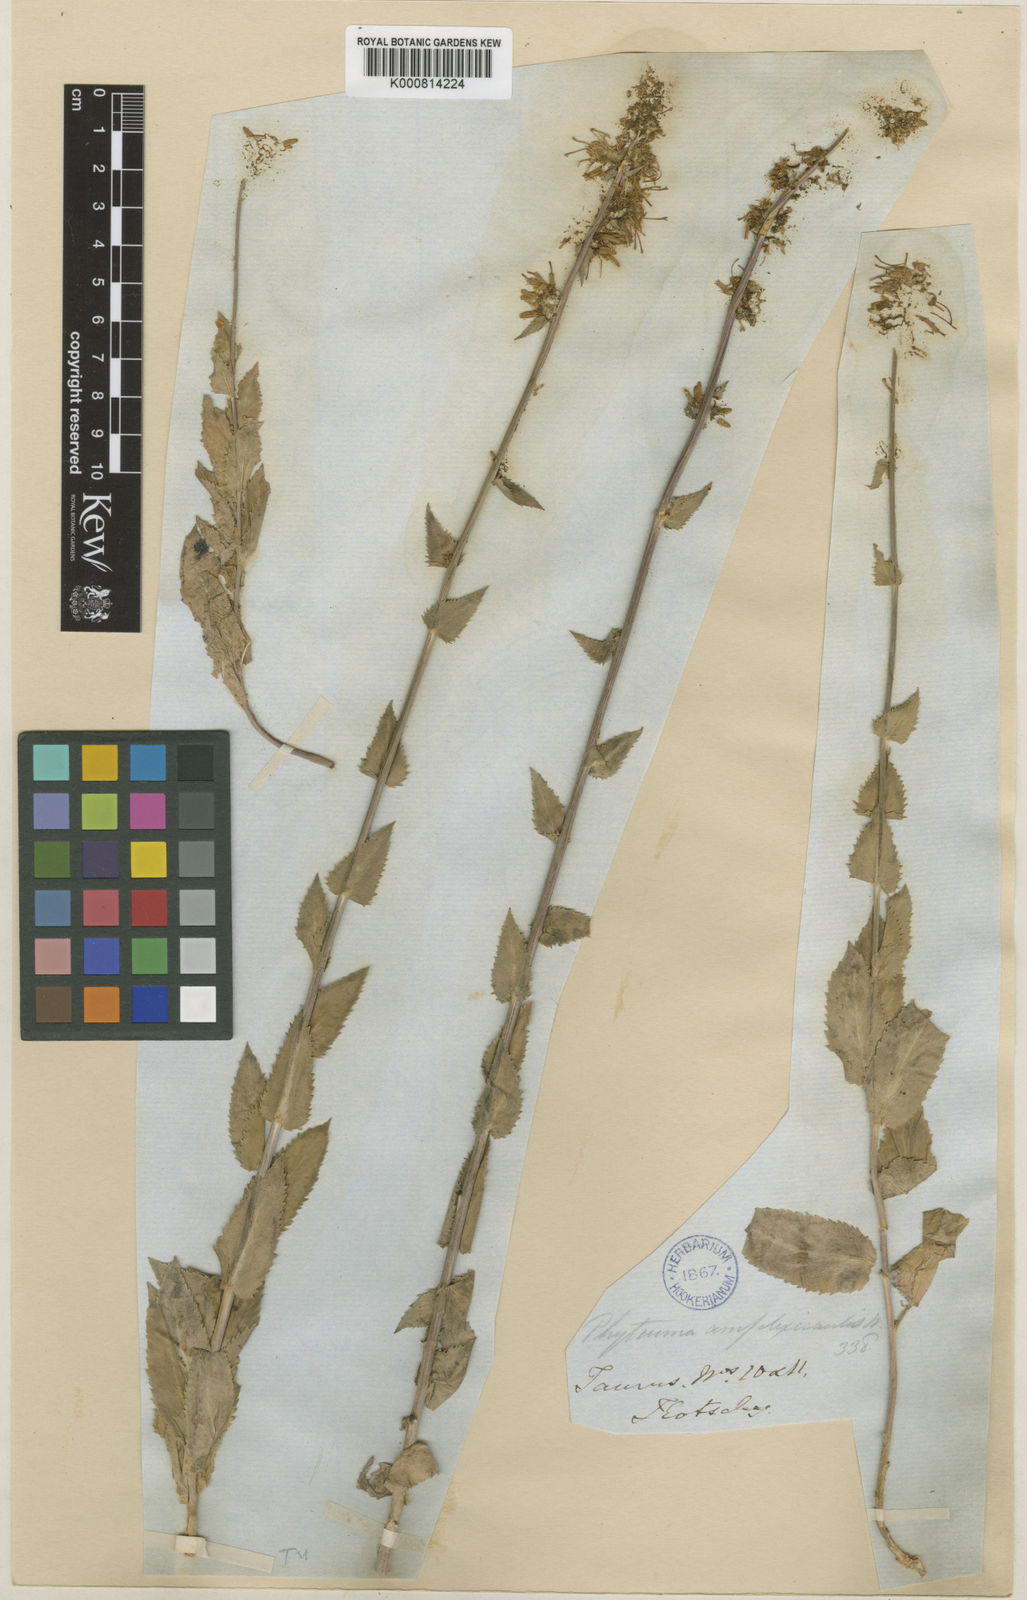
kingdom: Plantae
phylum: Tracheophyta
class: Magnoliopsida
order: Asterales
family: Campanulaceae
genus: Asyneuma
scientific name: Asyneuma amplexicaule
